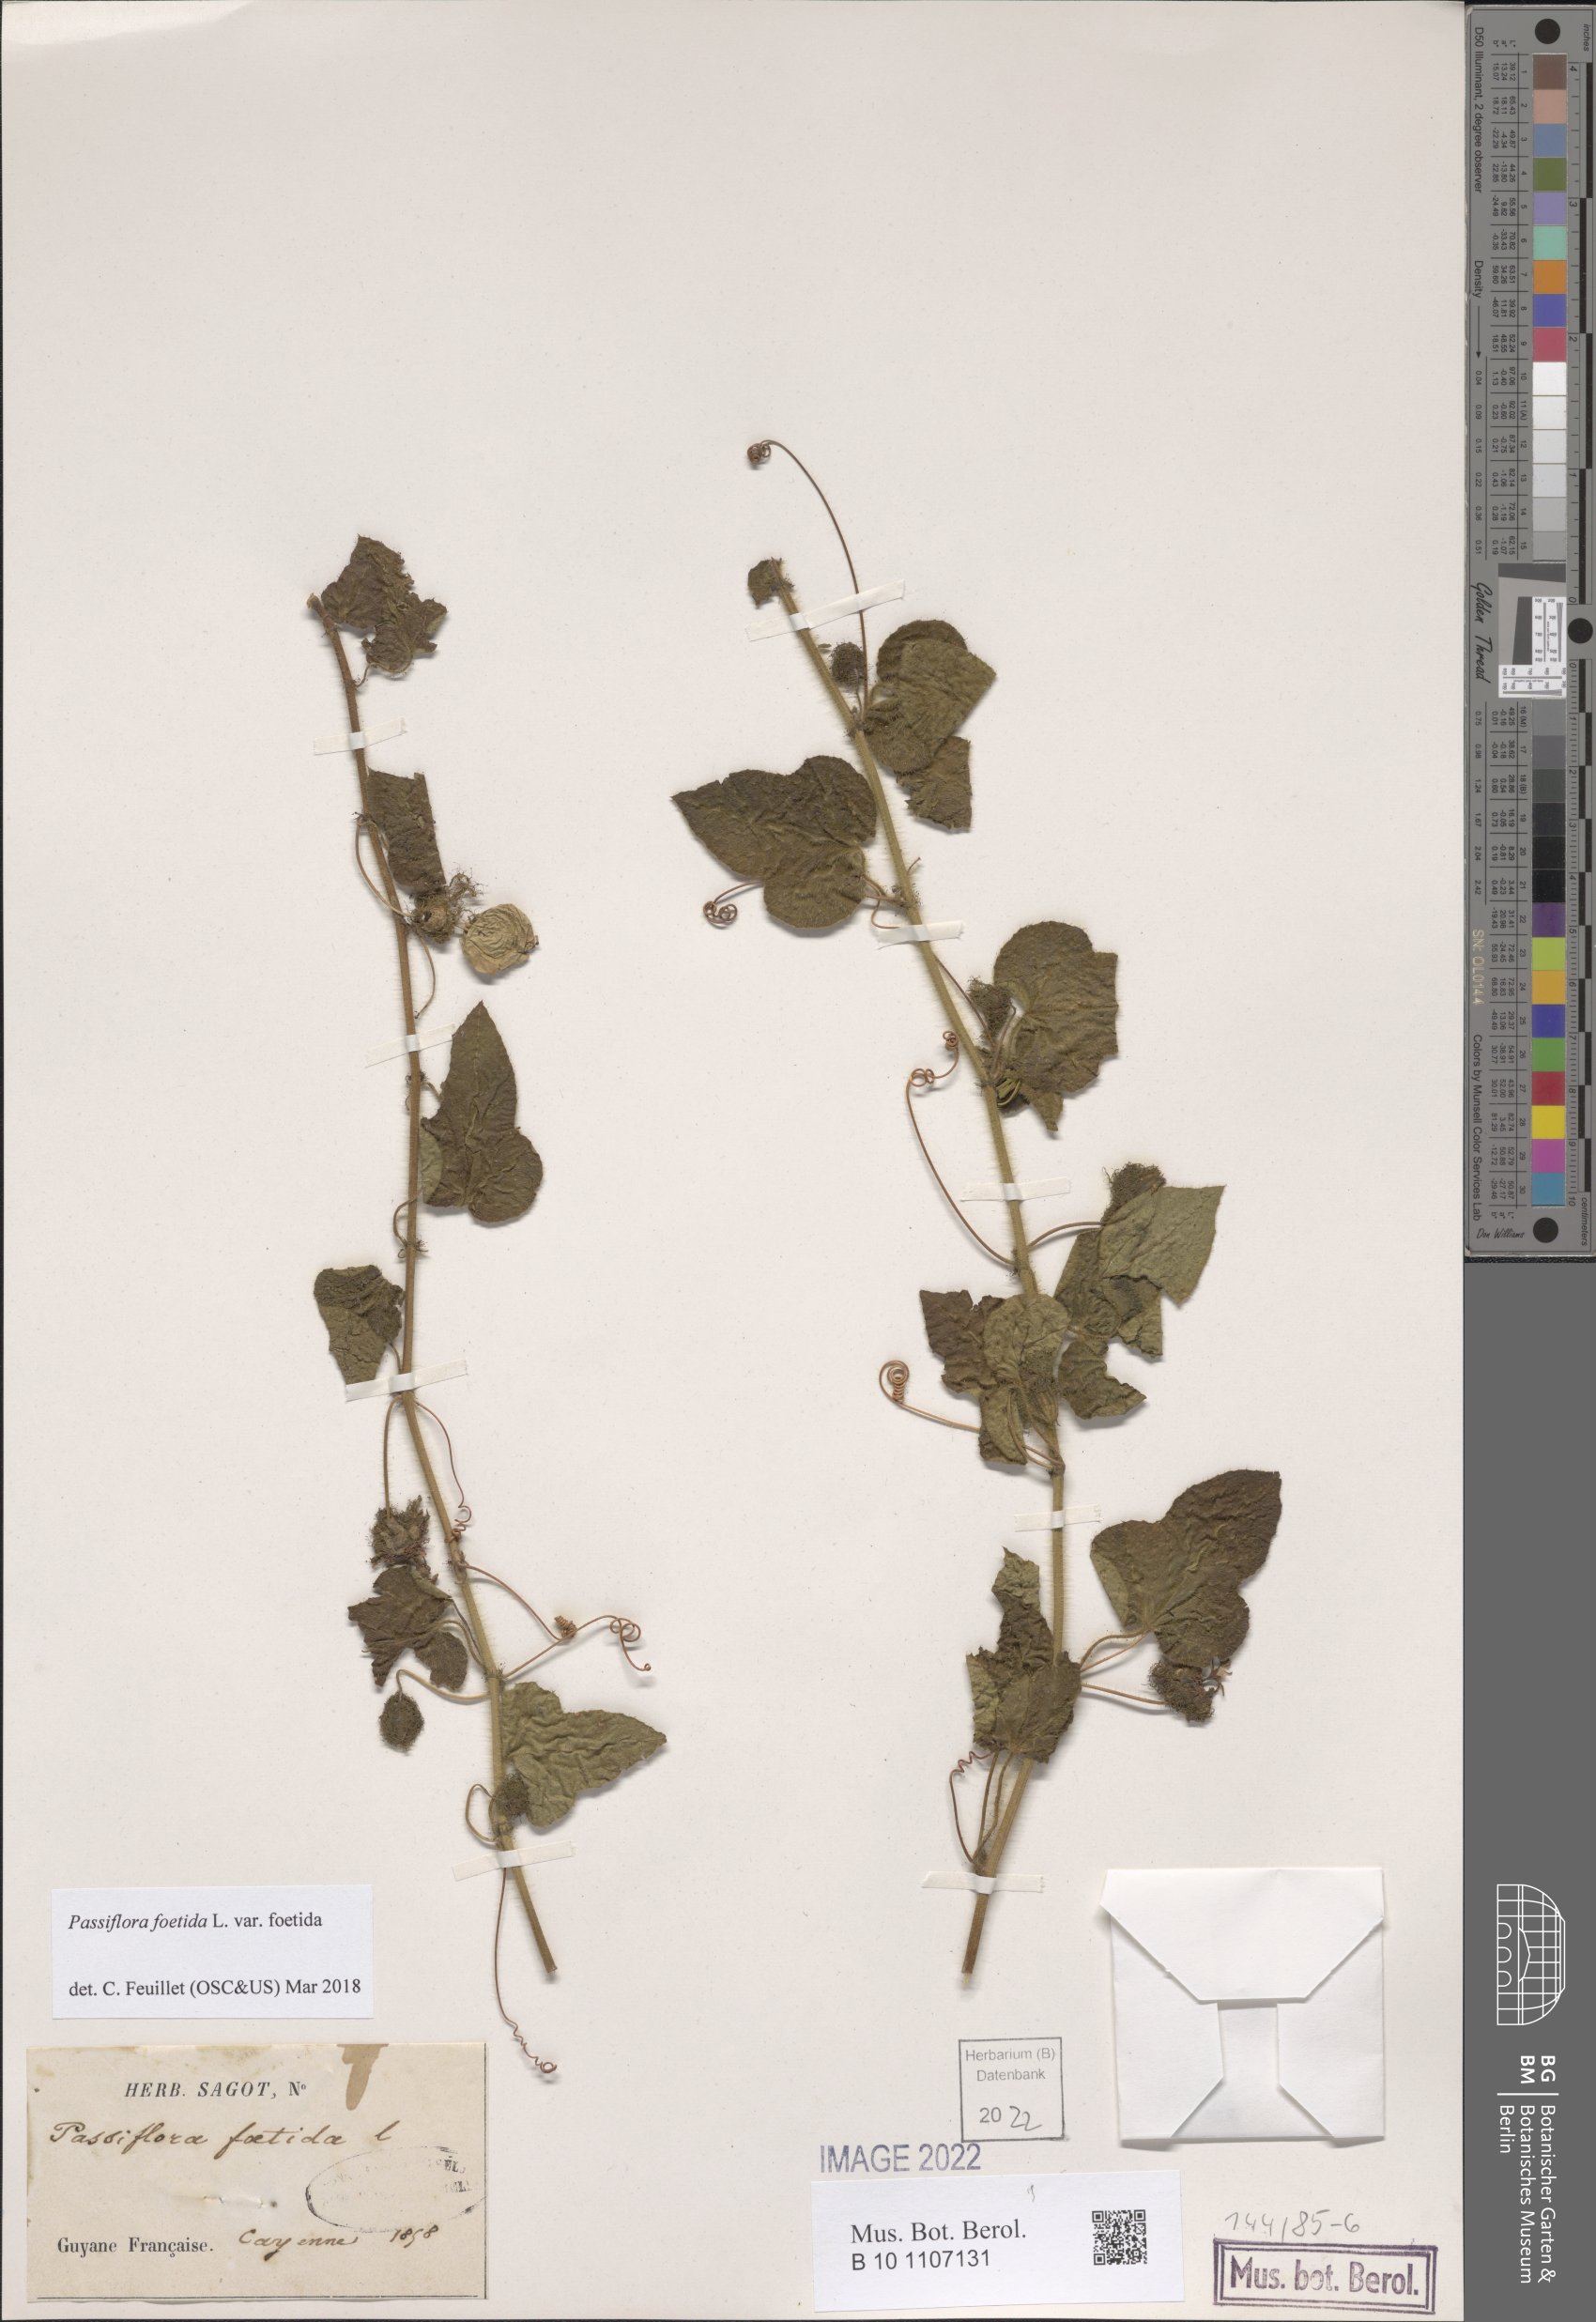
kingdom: Plantae
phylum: Tracheophyta
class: Magnoliopsida
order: Malpighiales
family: Passifloraceae
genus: Passiflora
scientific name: Passiflora foetida
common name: Fetid passionflower
